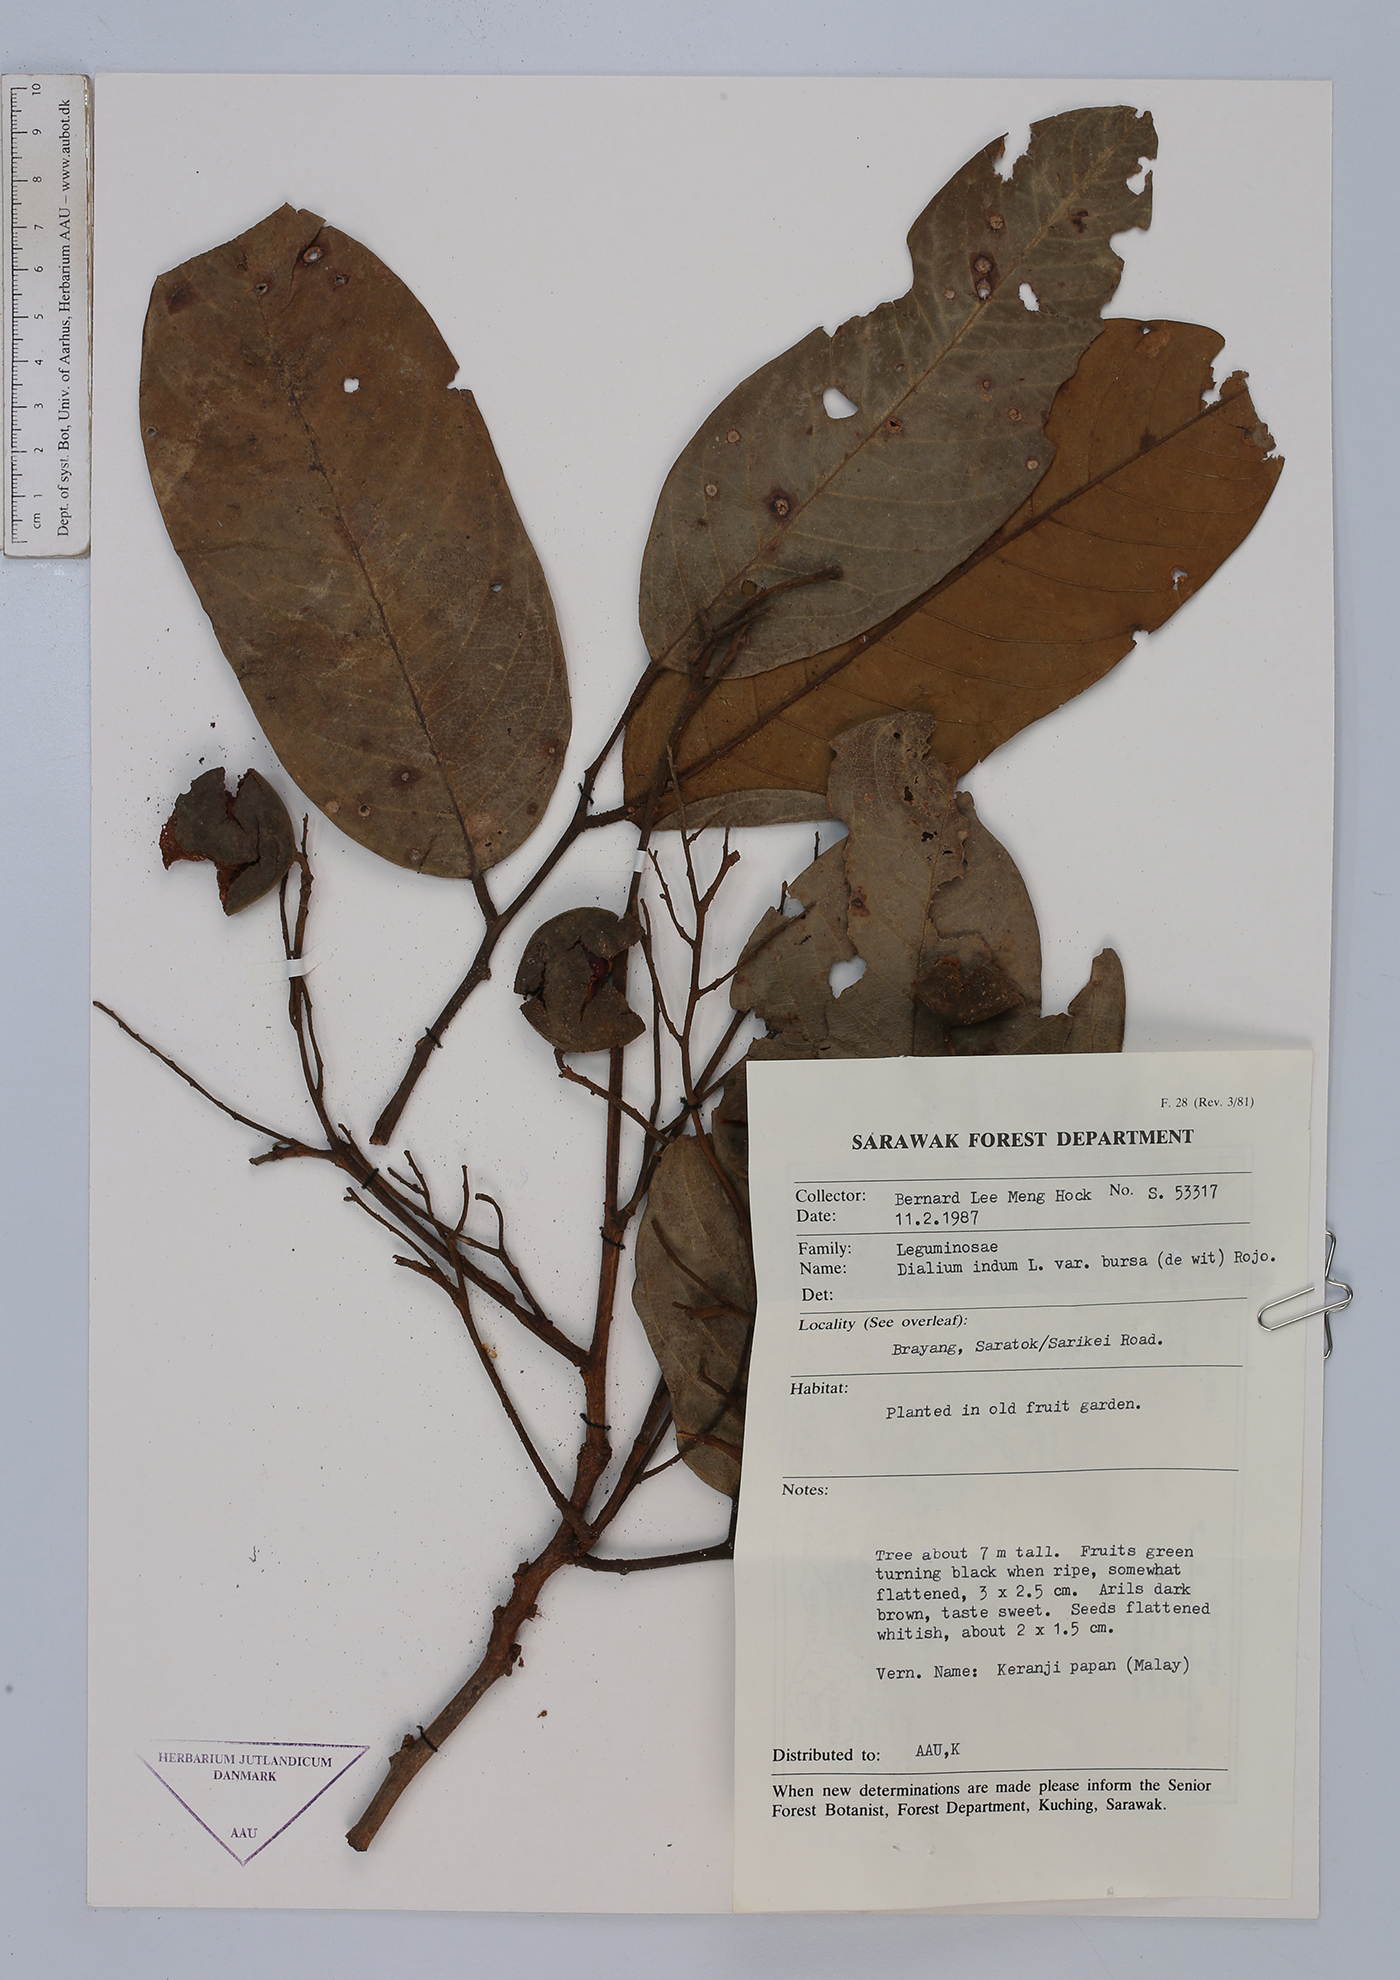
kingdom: Plantae
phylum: Tracheophyta
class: Magnoliopsida
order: Fabales
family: Fabaceae
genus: Dialium
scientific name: Dialium indum
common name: Tamarind-plum
